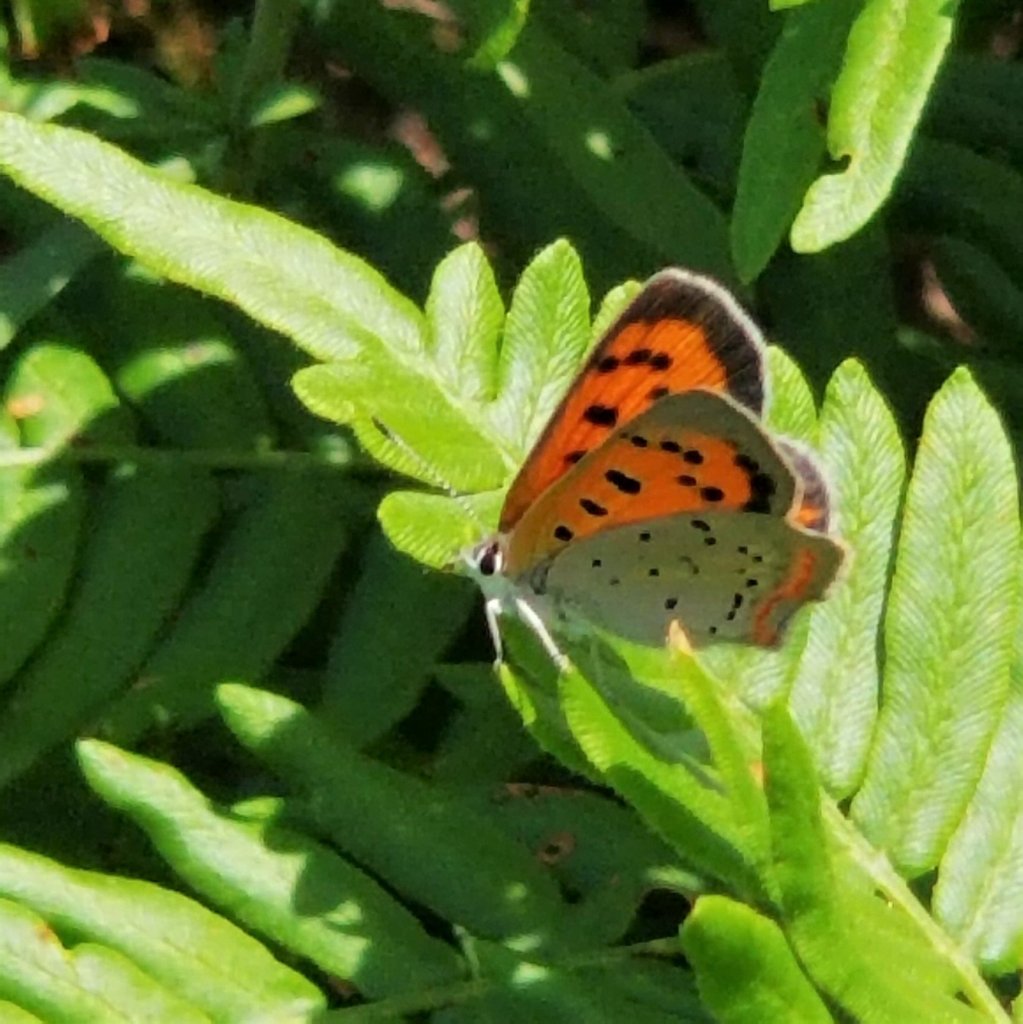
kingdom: Animalia
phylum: Arthropoda
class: Insecta
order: Lepidoptera
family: Lycaenidae
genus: Lycaena
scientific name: Lycaena phlaeas
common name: American Copper
